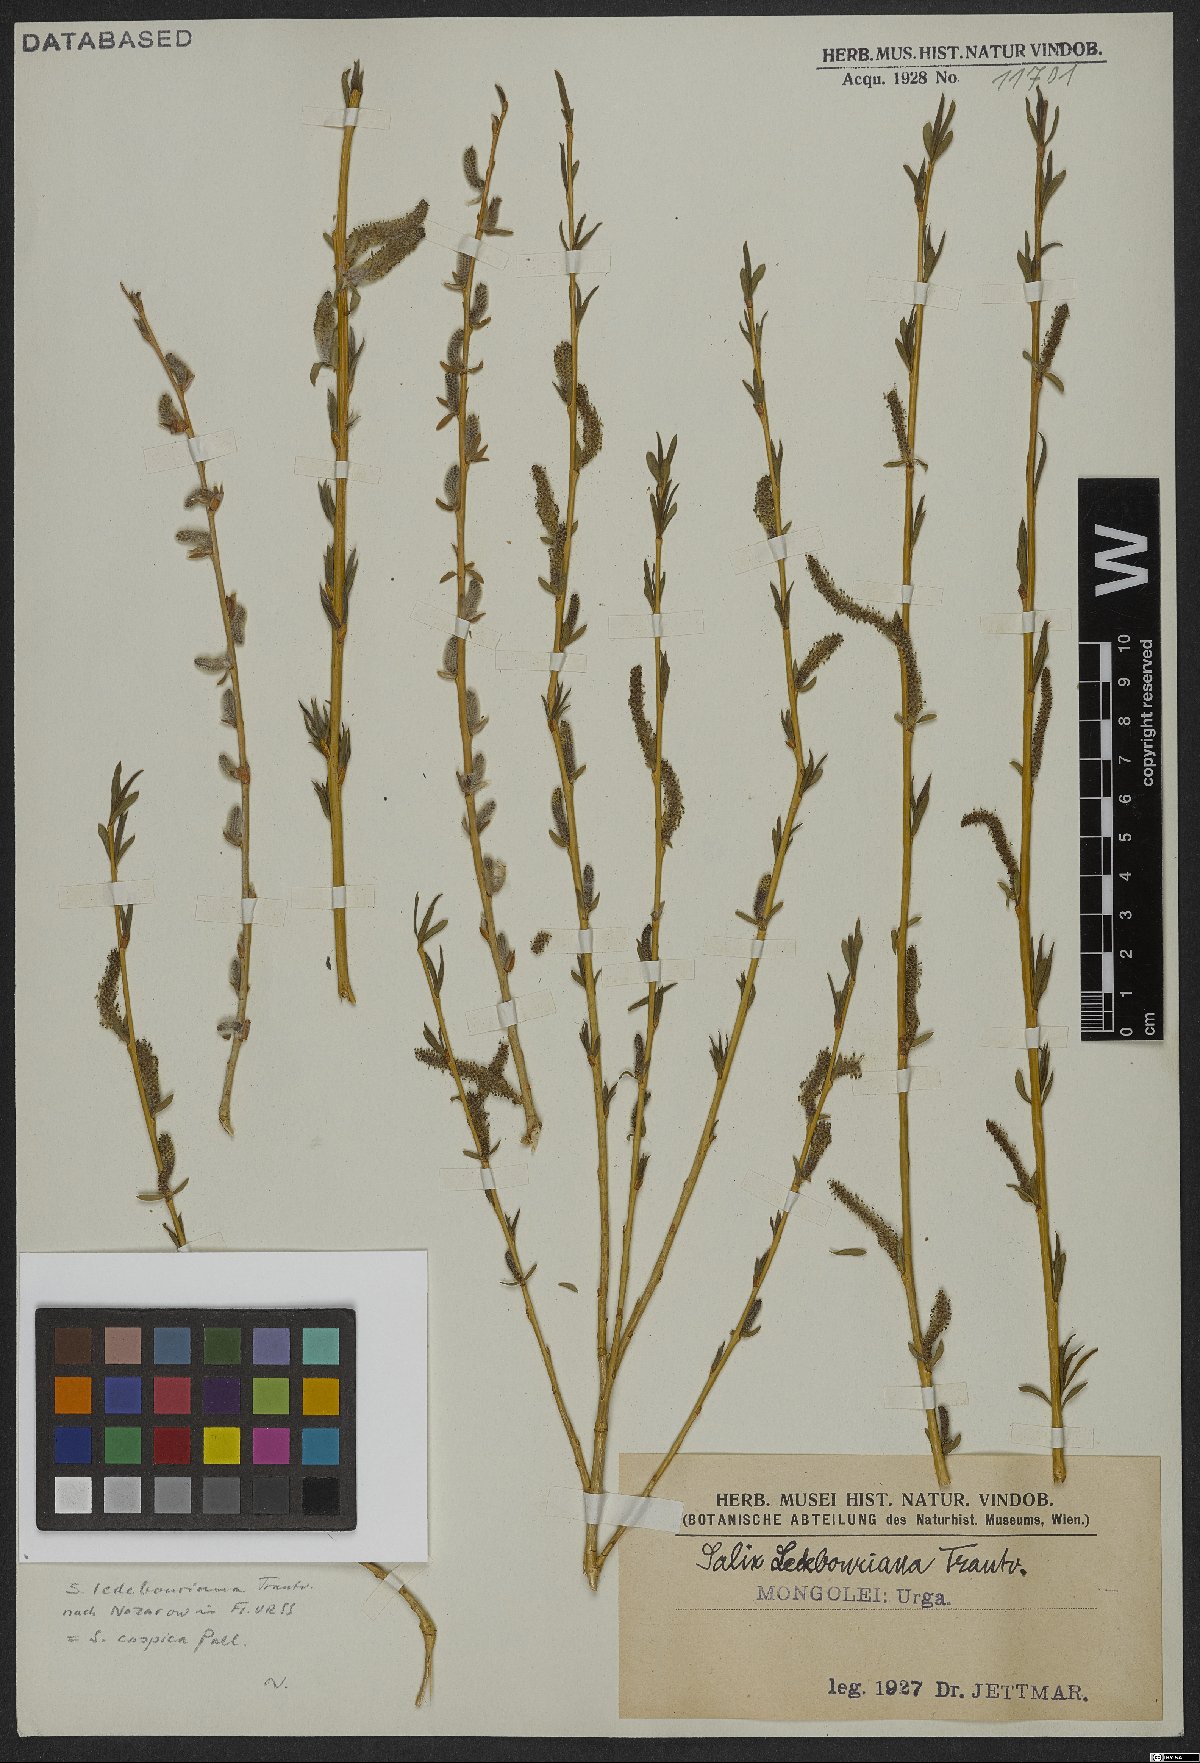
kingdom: Plantae
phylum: Tracheophyta
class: Magnoliopsida
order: Malpighiales
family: Salicaceae
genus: Salix
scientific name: Salix caspica
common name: Caspian willow
